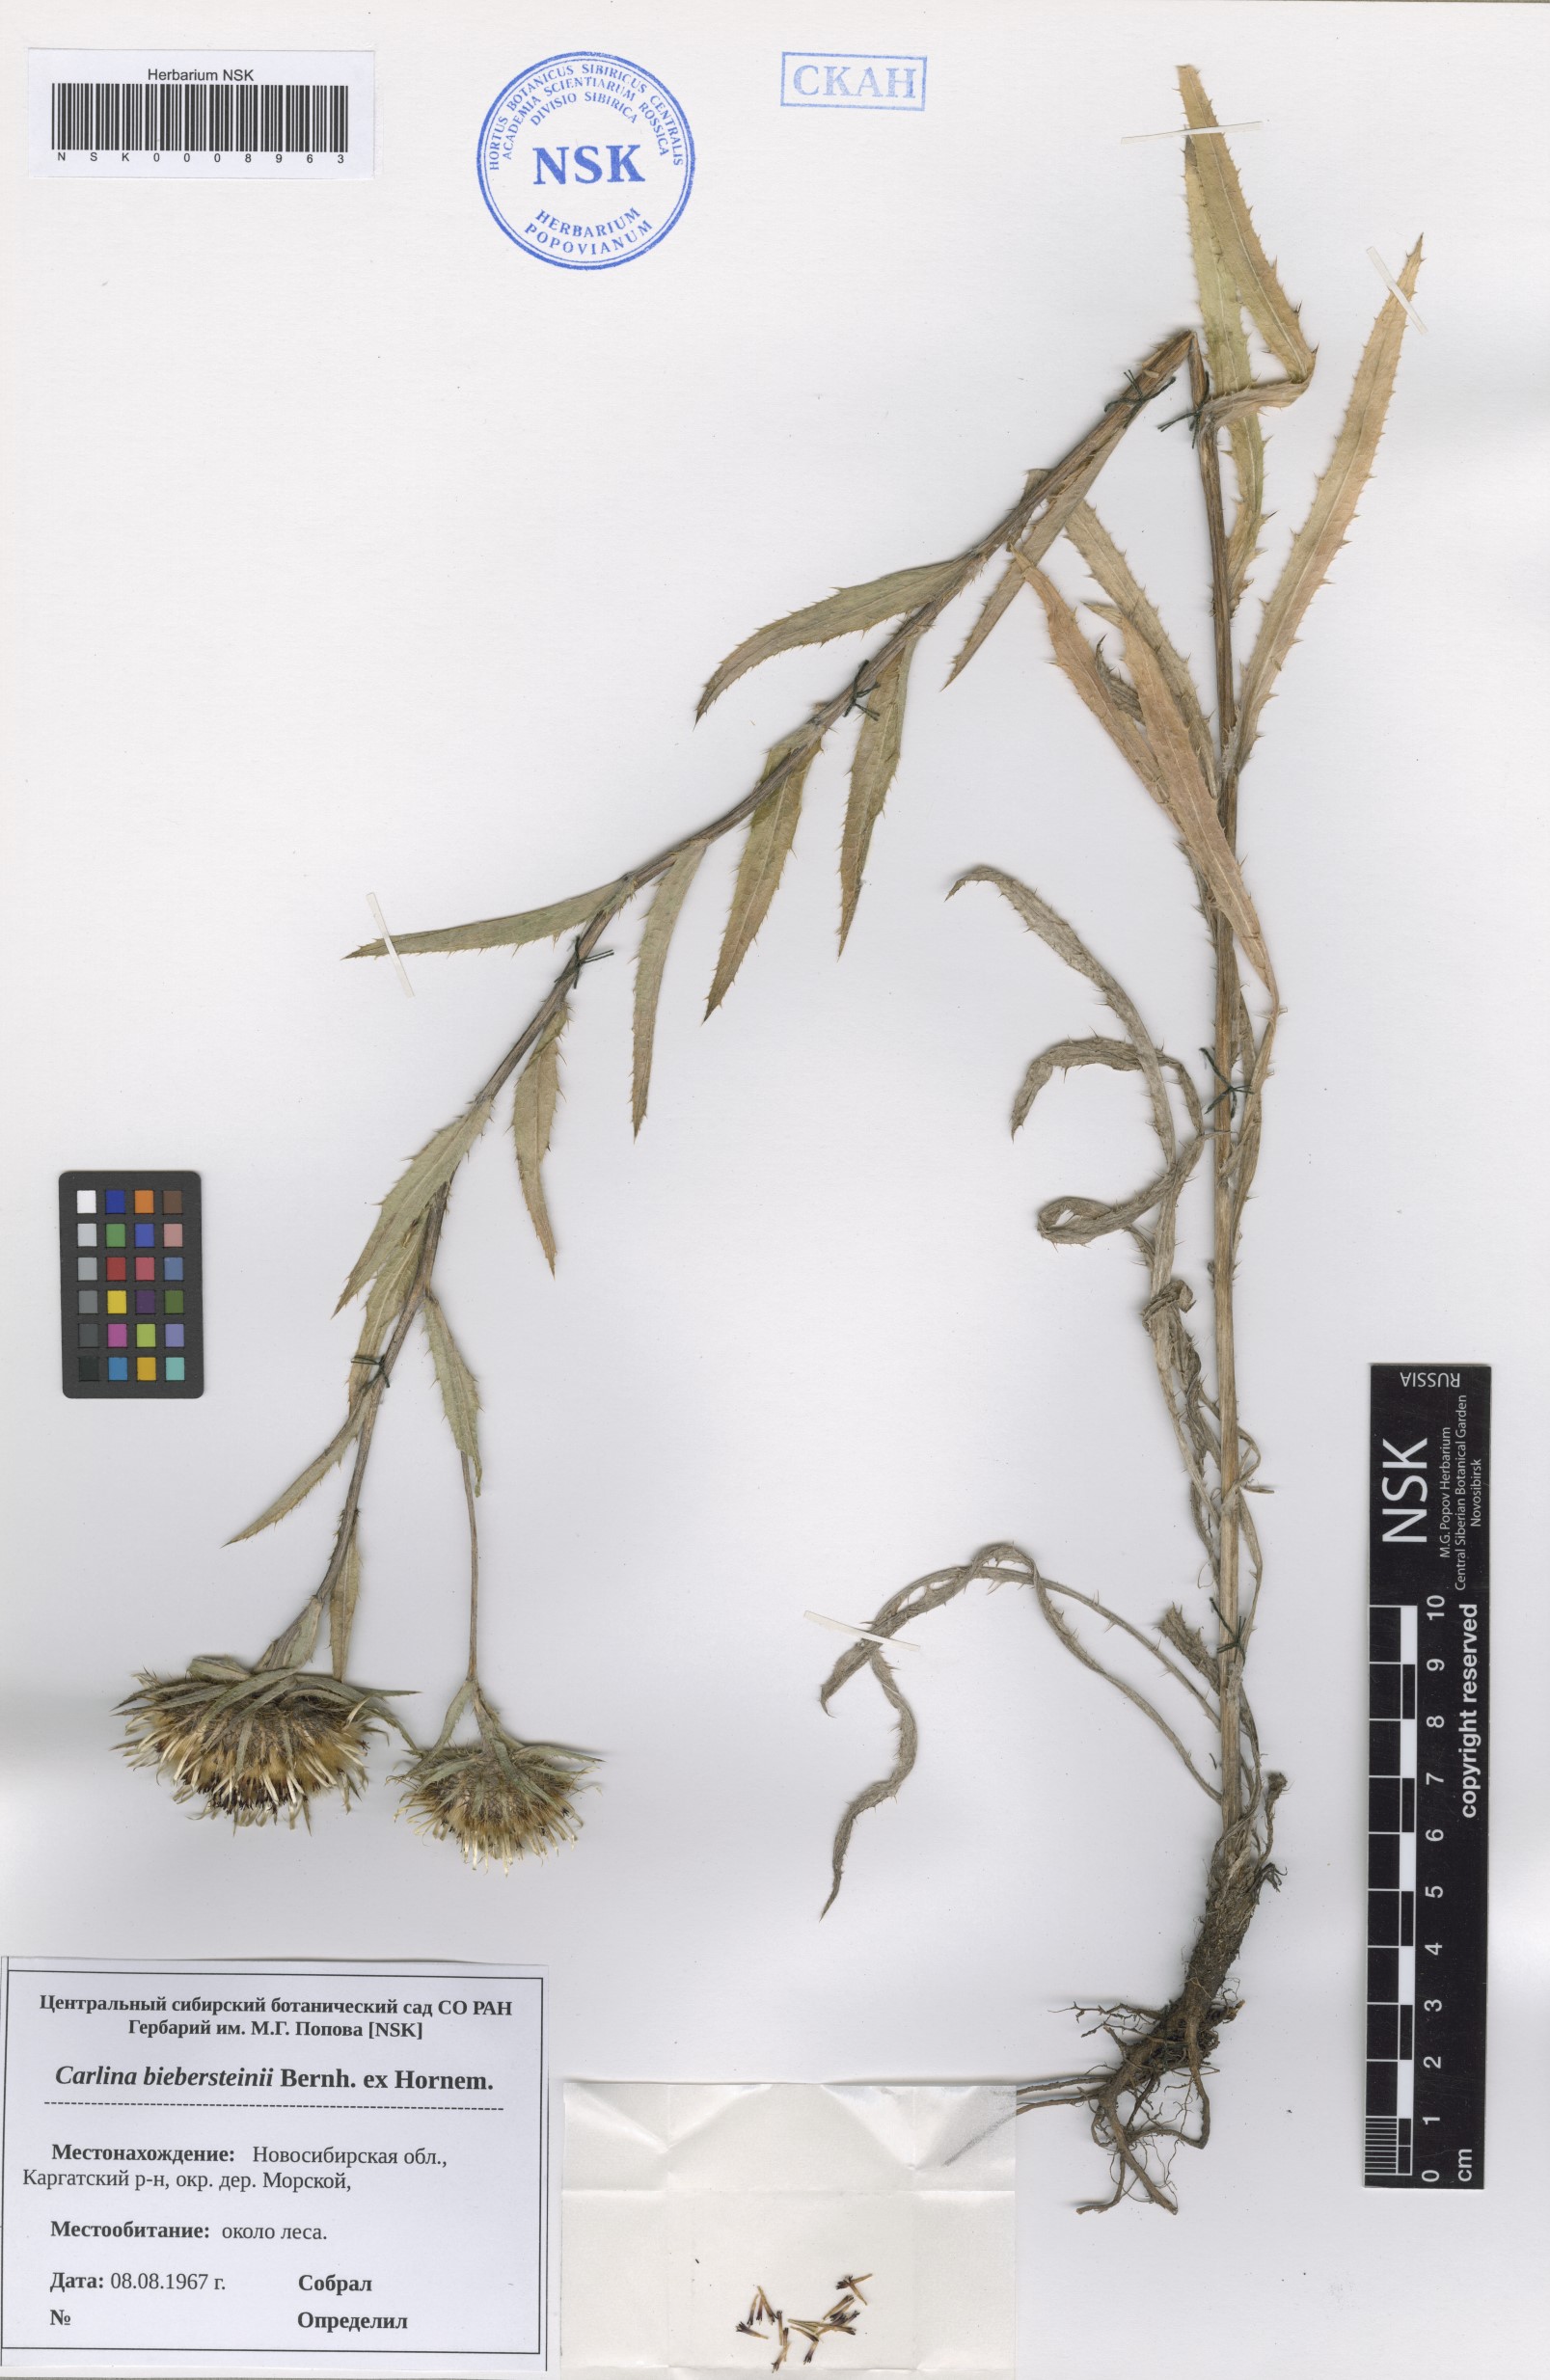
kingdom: Plantae
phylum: Tracheophyta
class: Magnoliopsida
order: Asterales
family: Asteraceae
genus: Carlina
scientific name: Carlina biebersteinii
